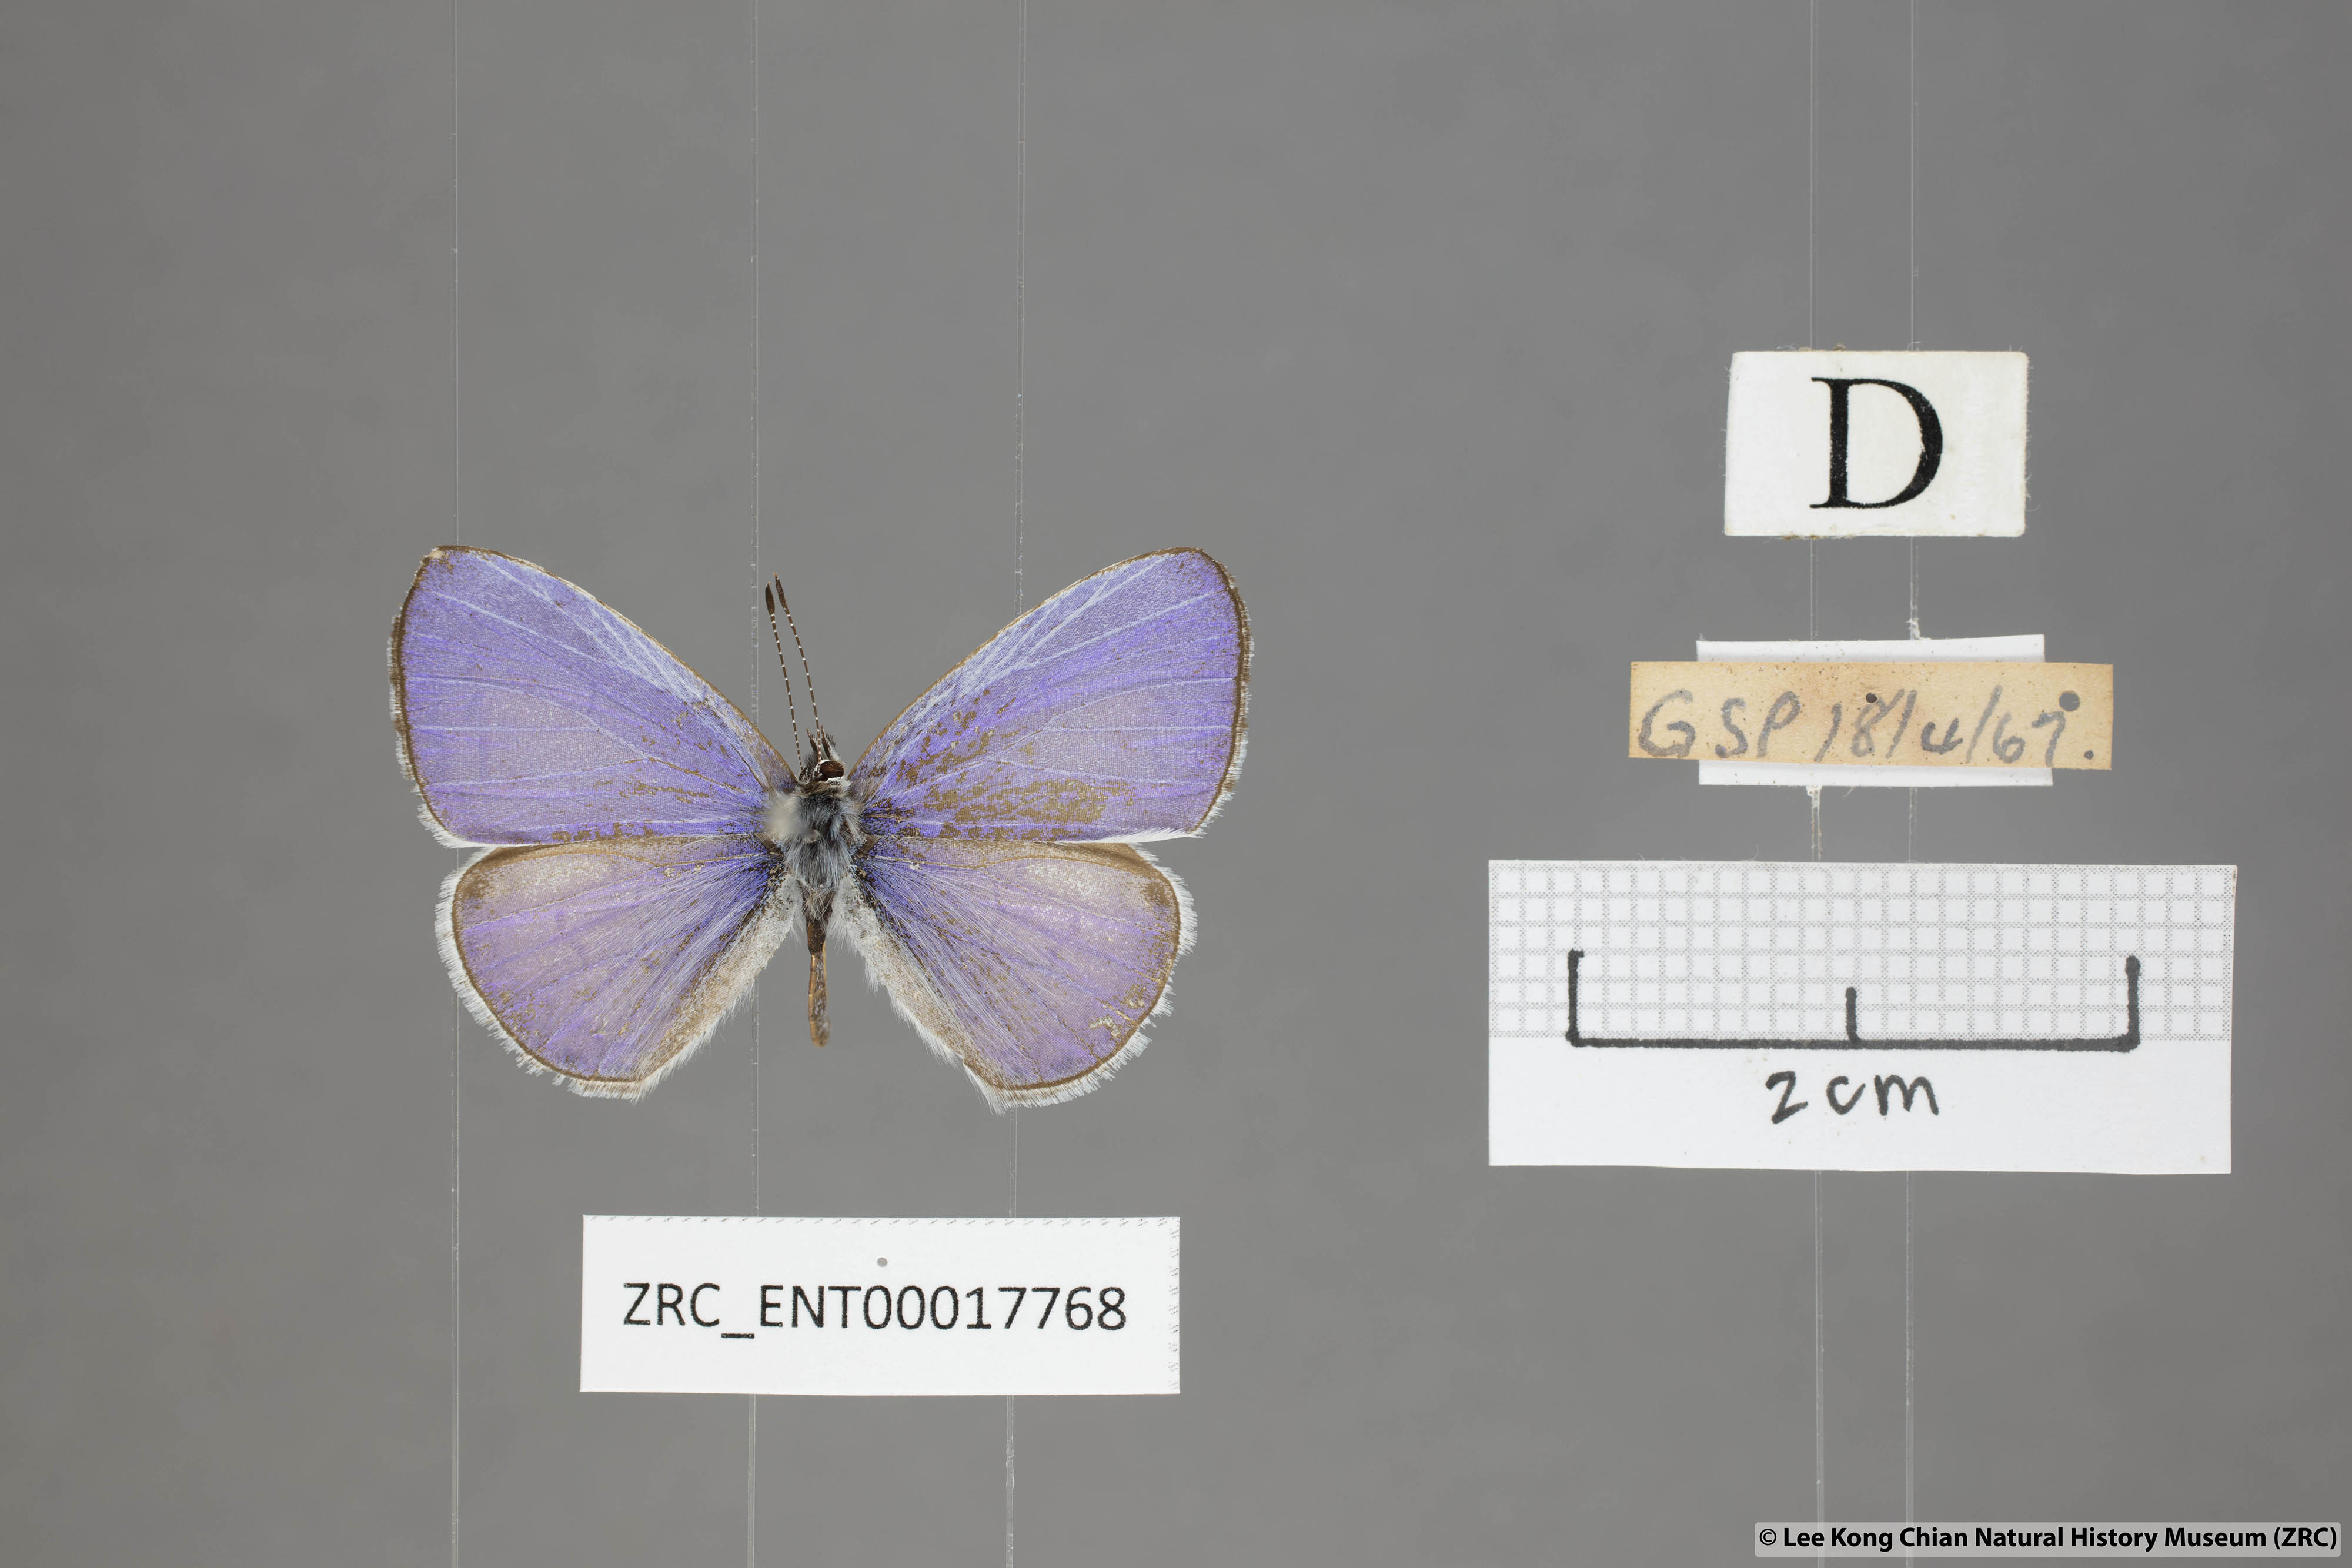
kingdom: Animalia
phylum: Arthropoda
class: Insecta
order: Lepidoptera
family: Lycaenidae
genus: Udara
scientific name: Udara dilectus
